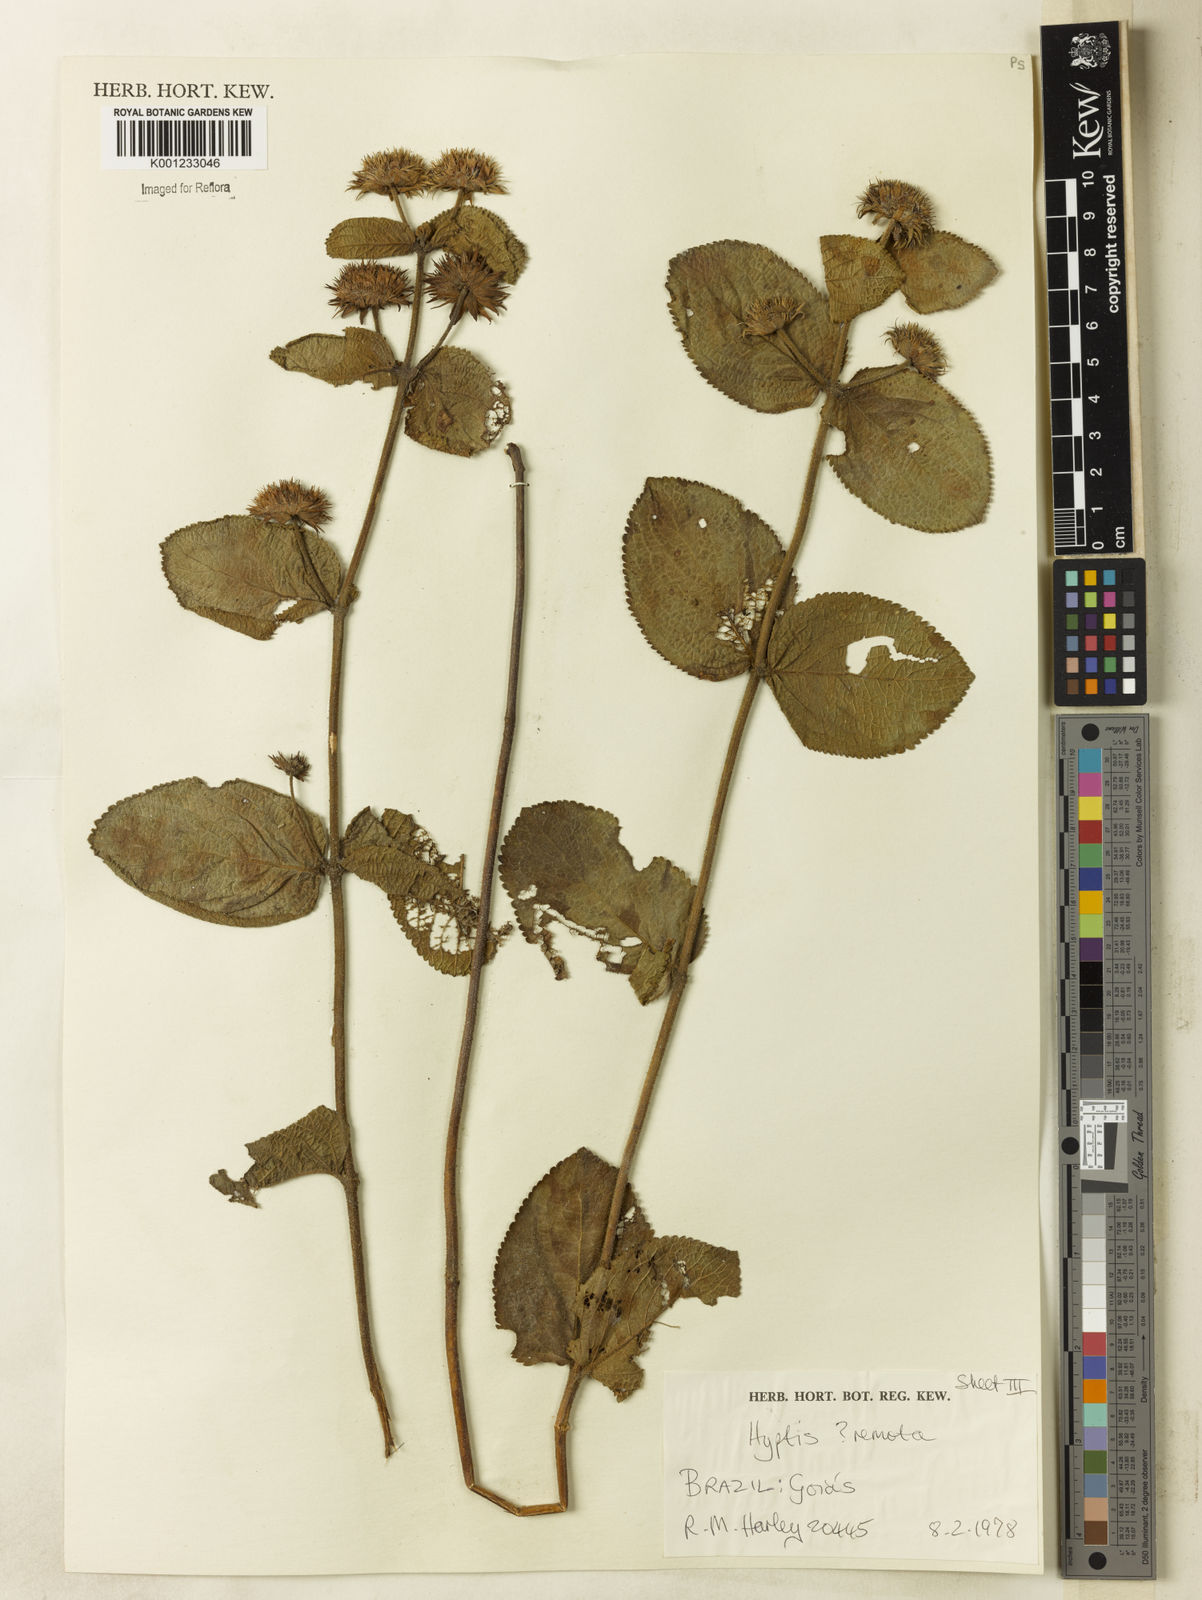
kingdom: Plantae
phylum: Tracheophyta
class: Magnoliopsida
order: Lamiales
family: Lamiaceae
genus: Hyptis
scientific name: Hyptis remota
